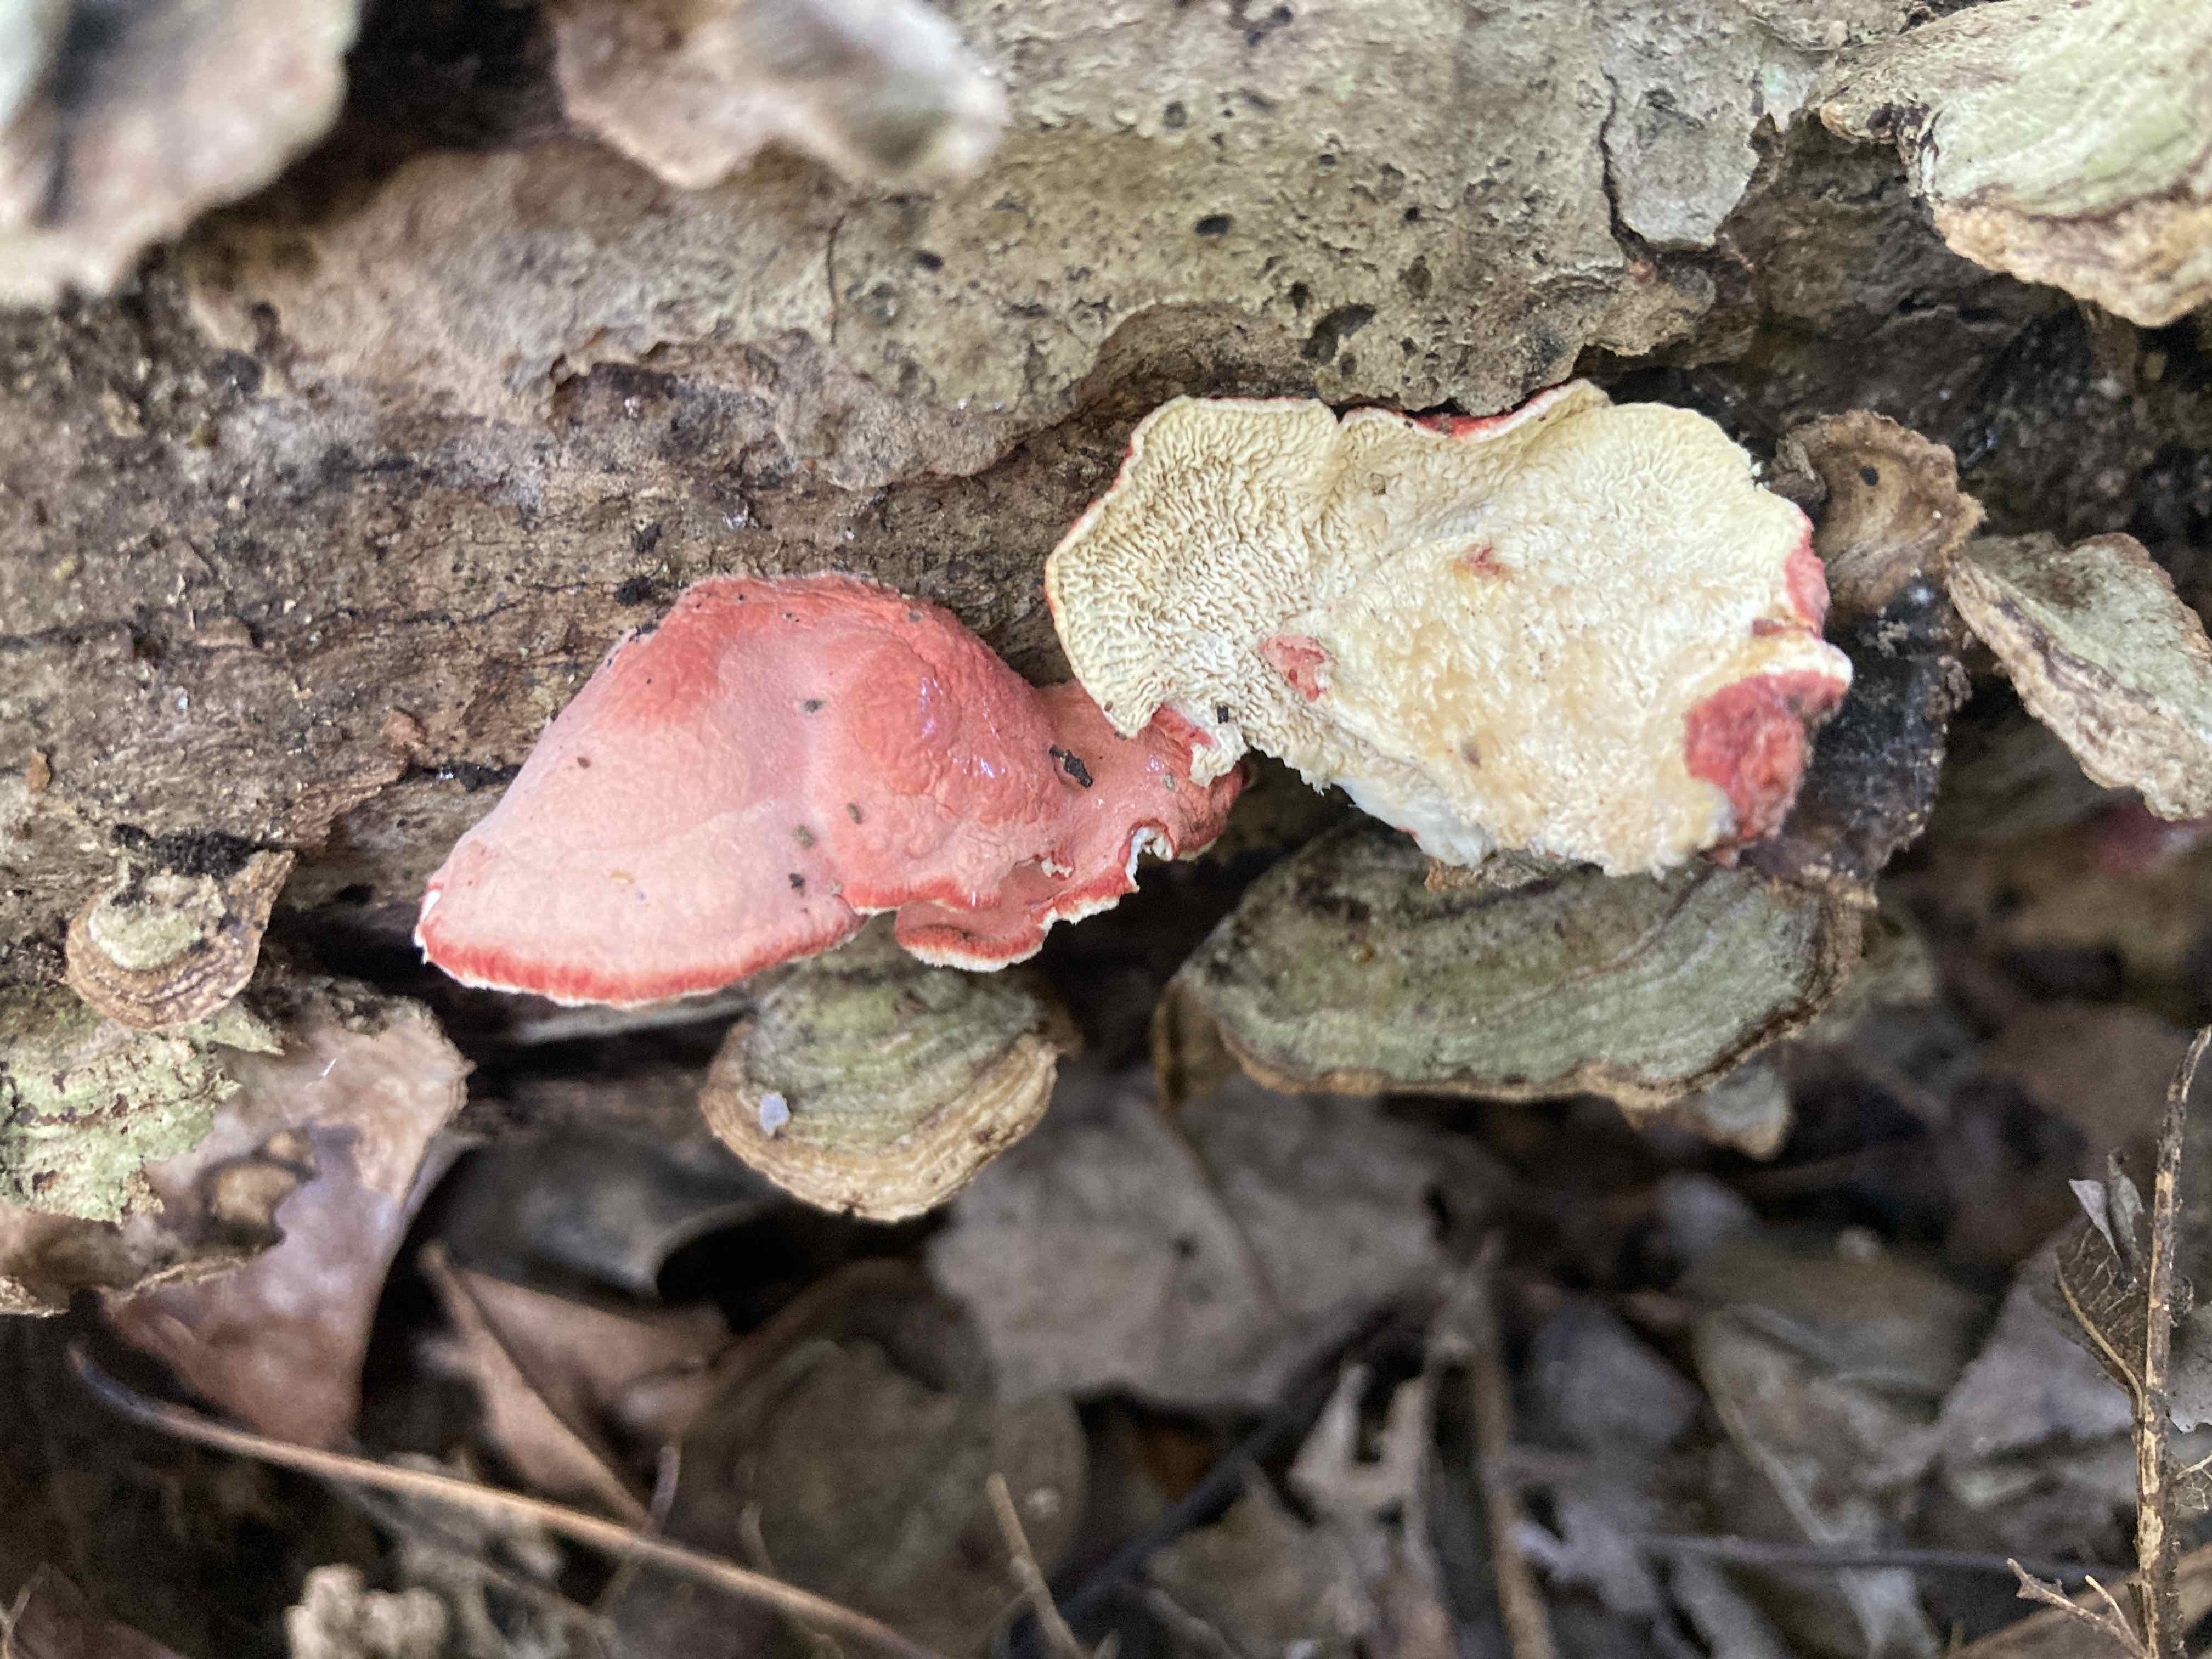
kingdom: Fungi
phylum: Basidiomycota
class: Agaricomycetes
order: Polyporales
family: Irpicaceae
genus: Byssomerulius
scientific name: Byssomerulius incarnatus
